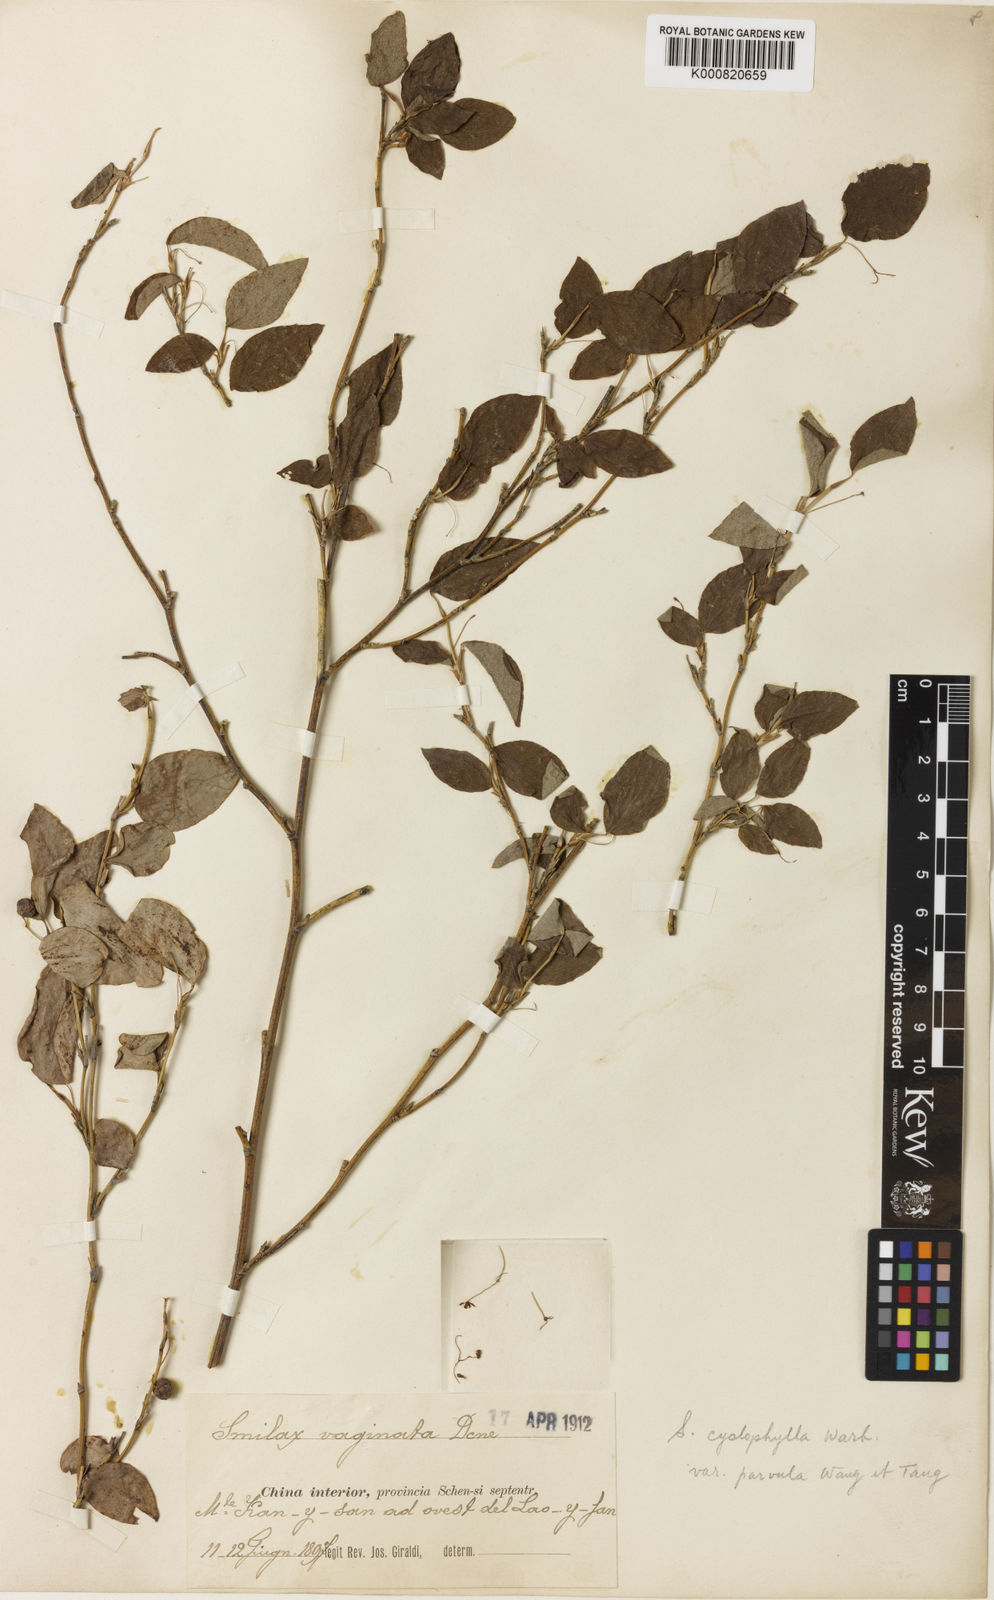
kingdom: Plantae
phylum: Tracheophyta
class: Liliopsida
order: Liliales
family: Smilacaceae
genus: Smilax
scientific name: Smilax neocyclophylla
